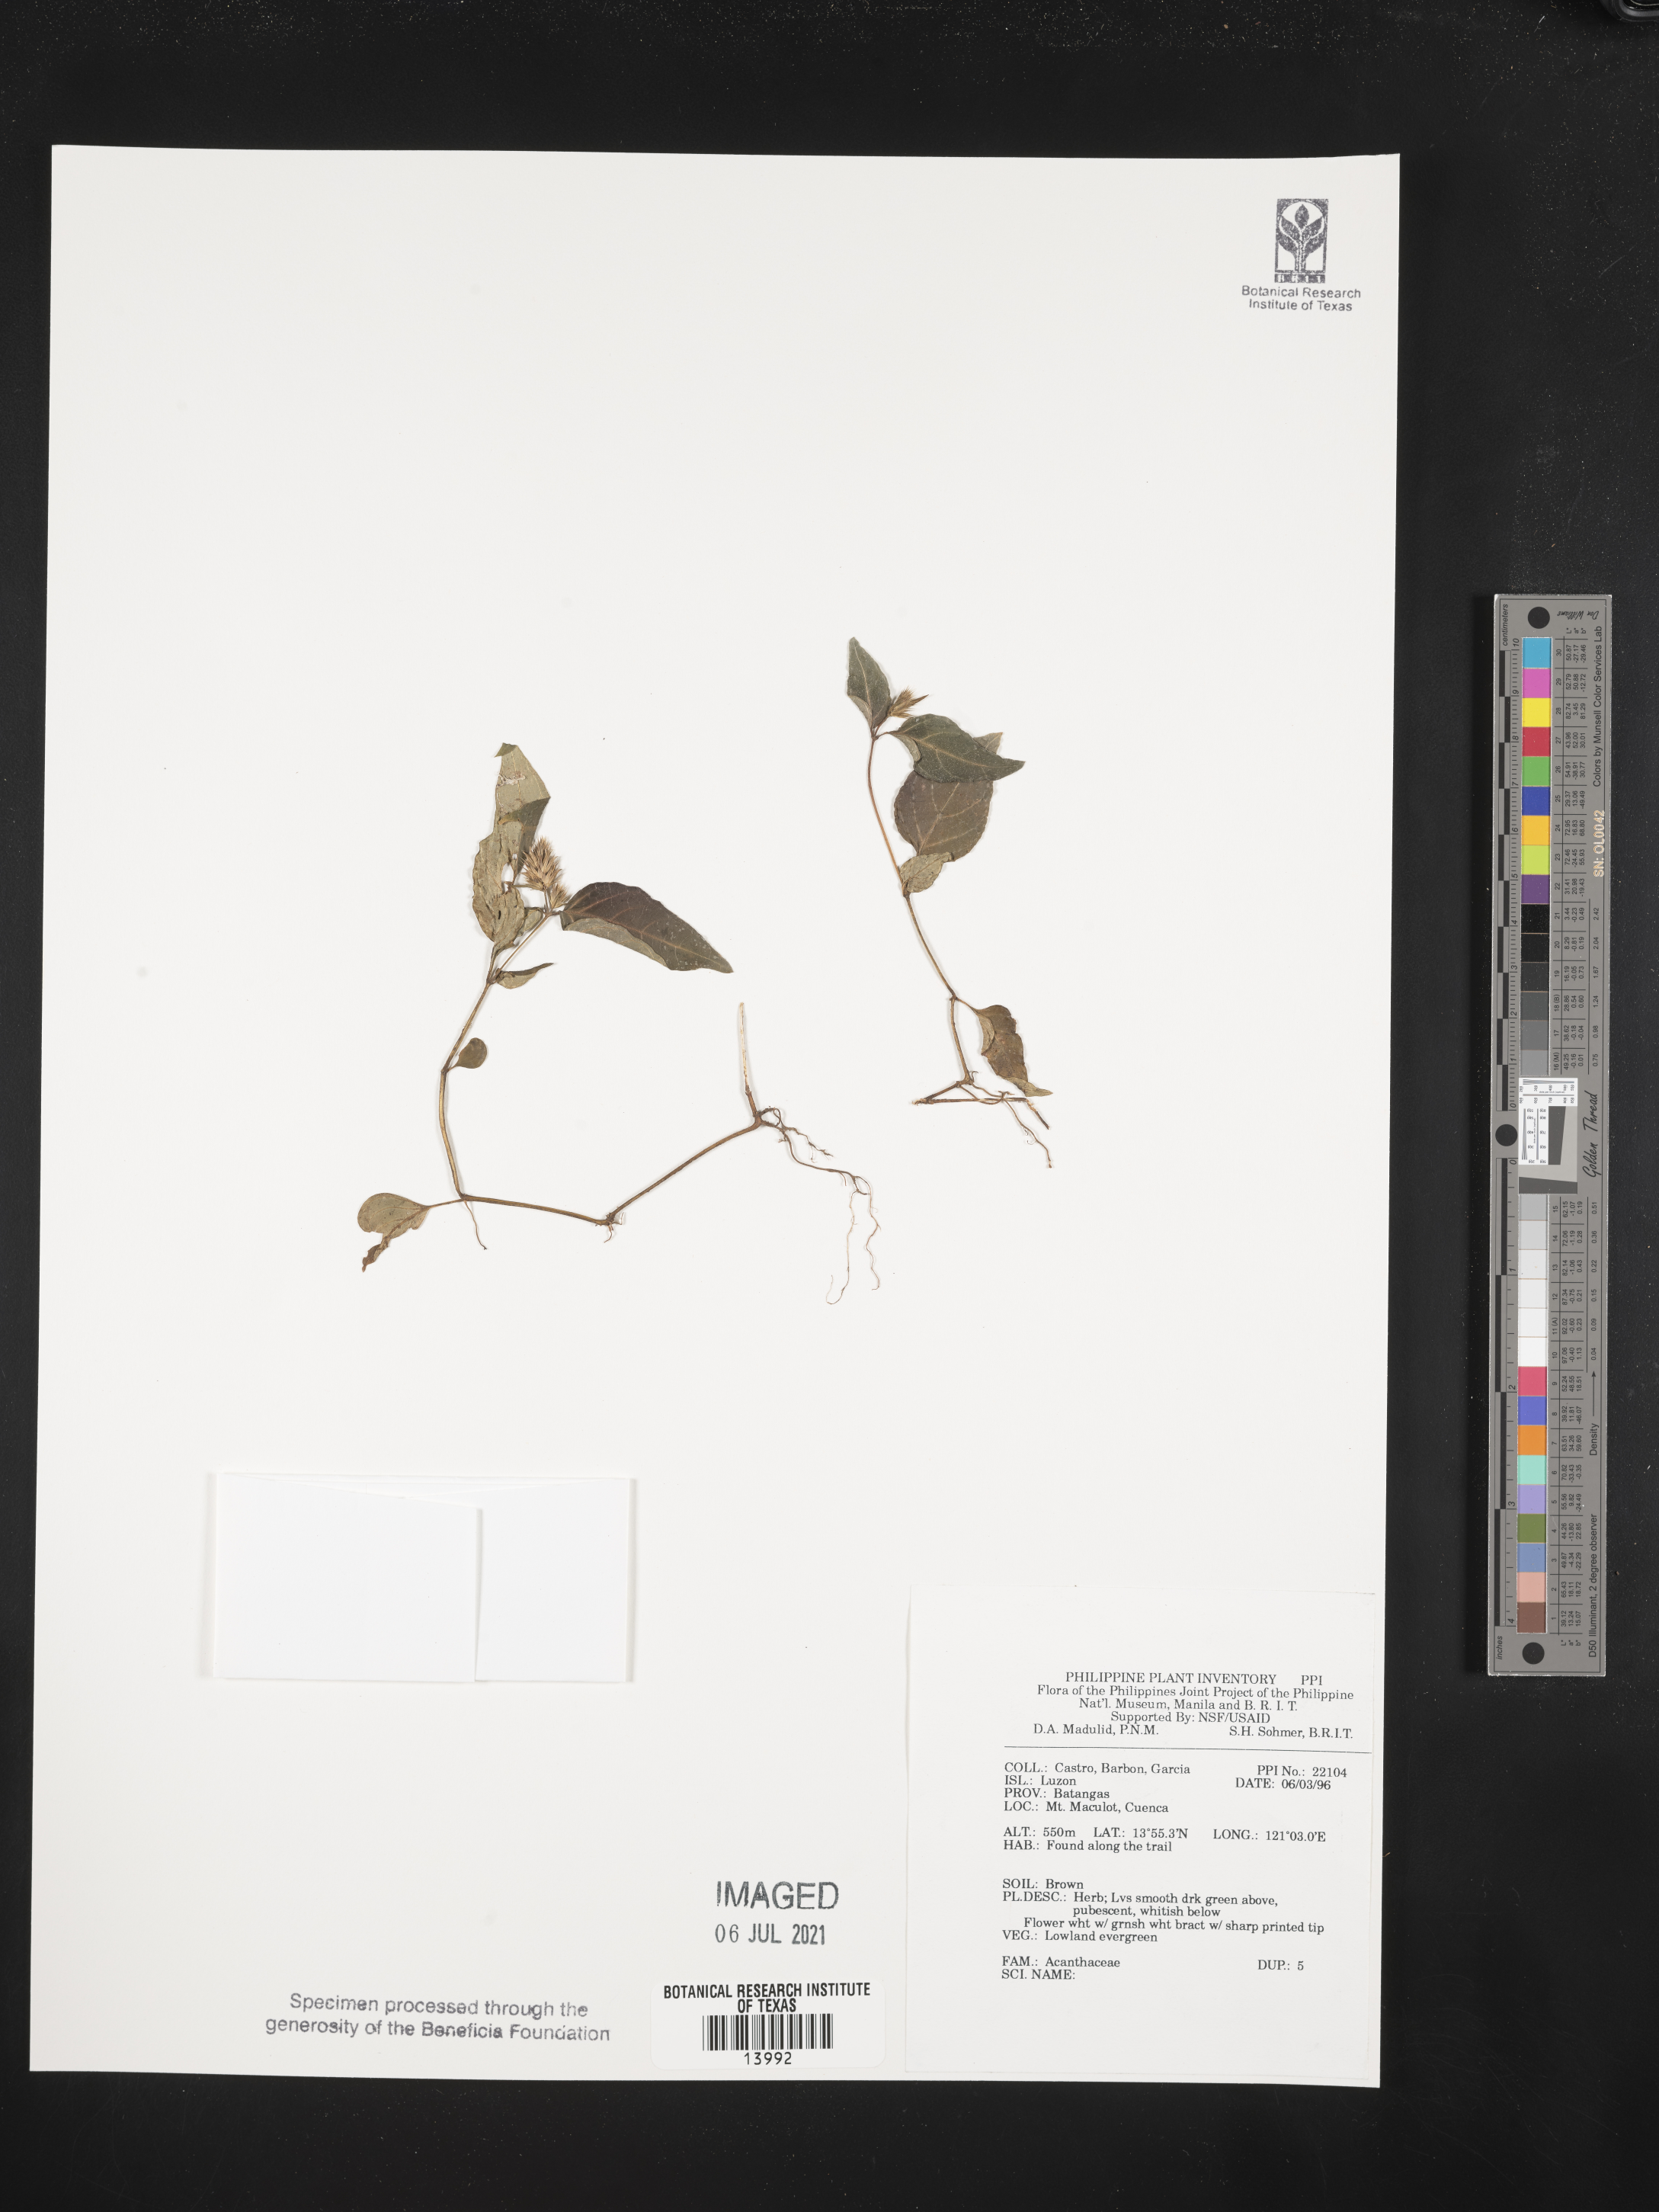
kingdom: Plantae
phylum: Tracheophyta
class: Magnoliopsida
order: Lamiales
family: Acanthaceae
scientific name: Acanthaceae
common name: Acanthaceae
